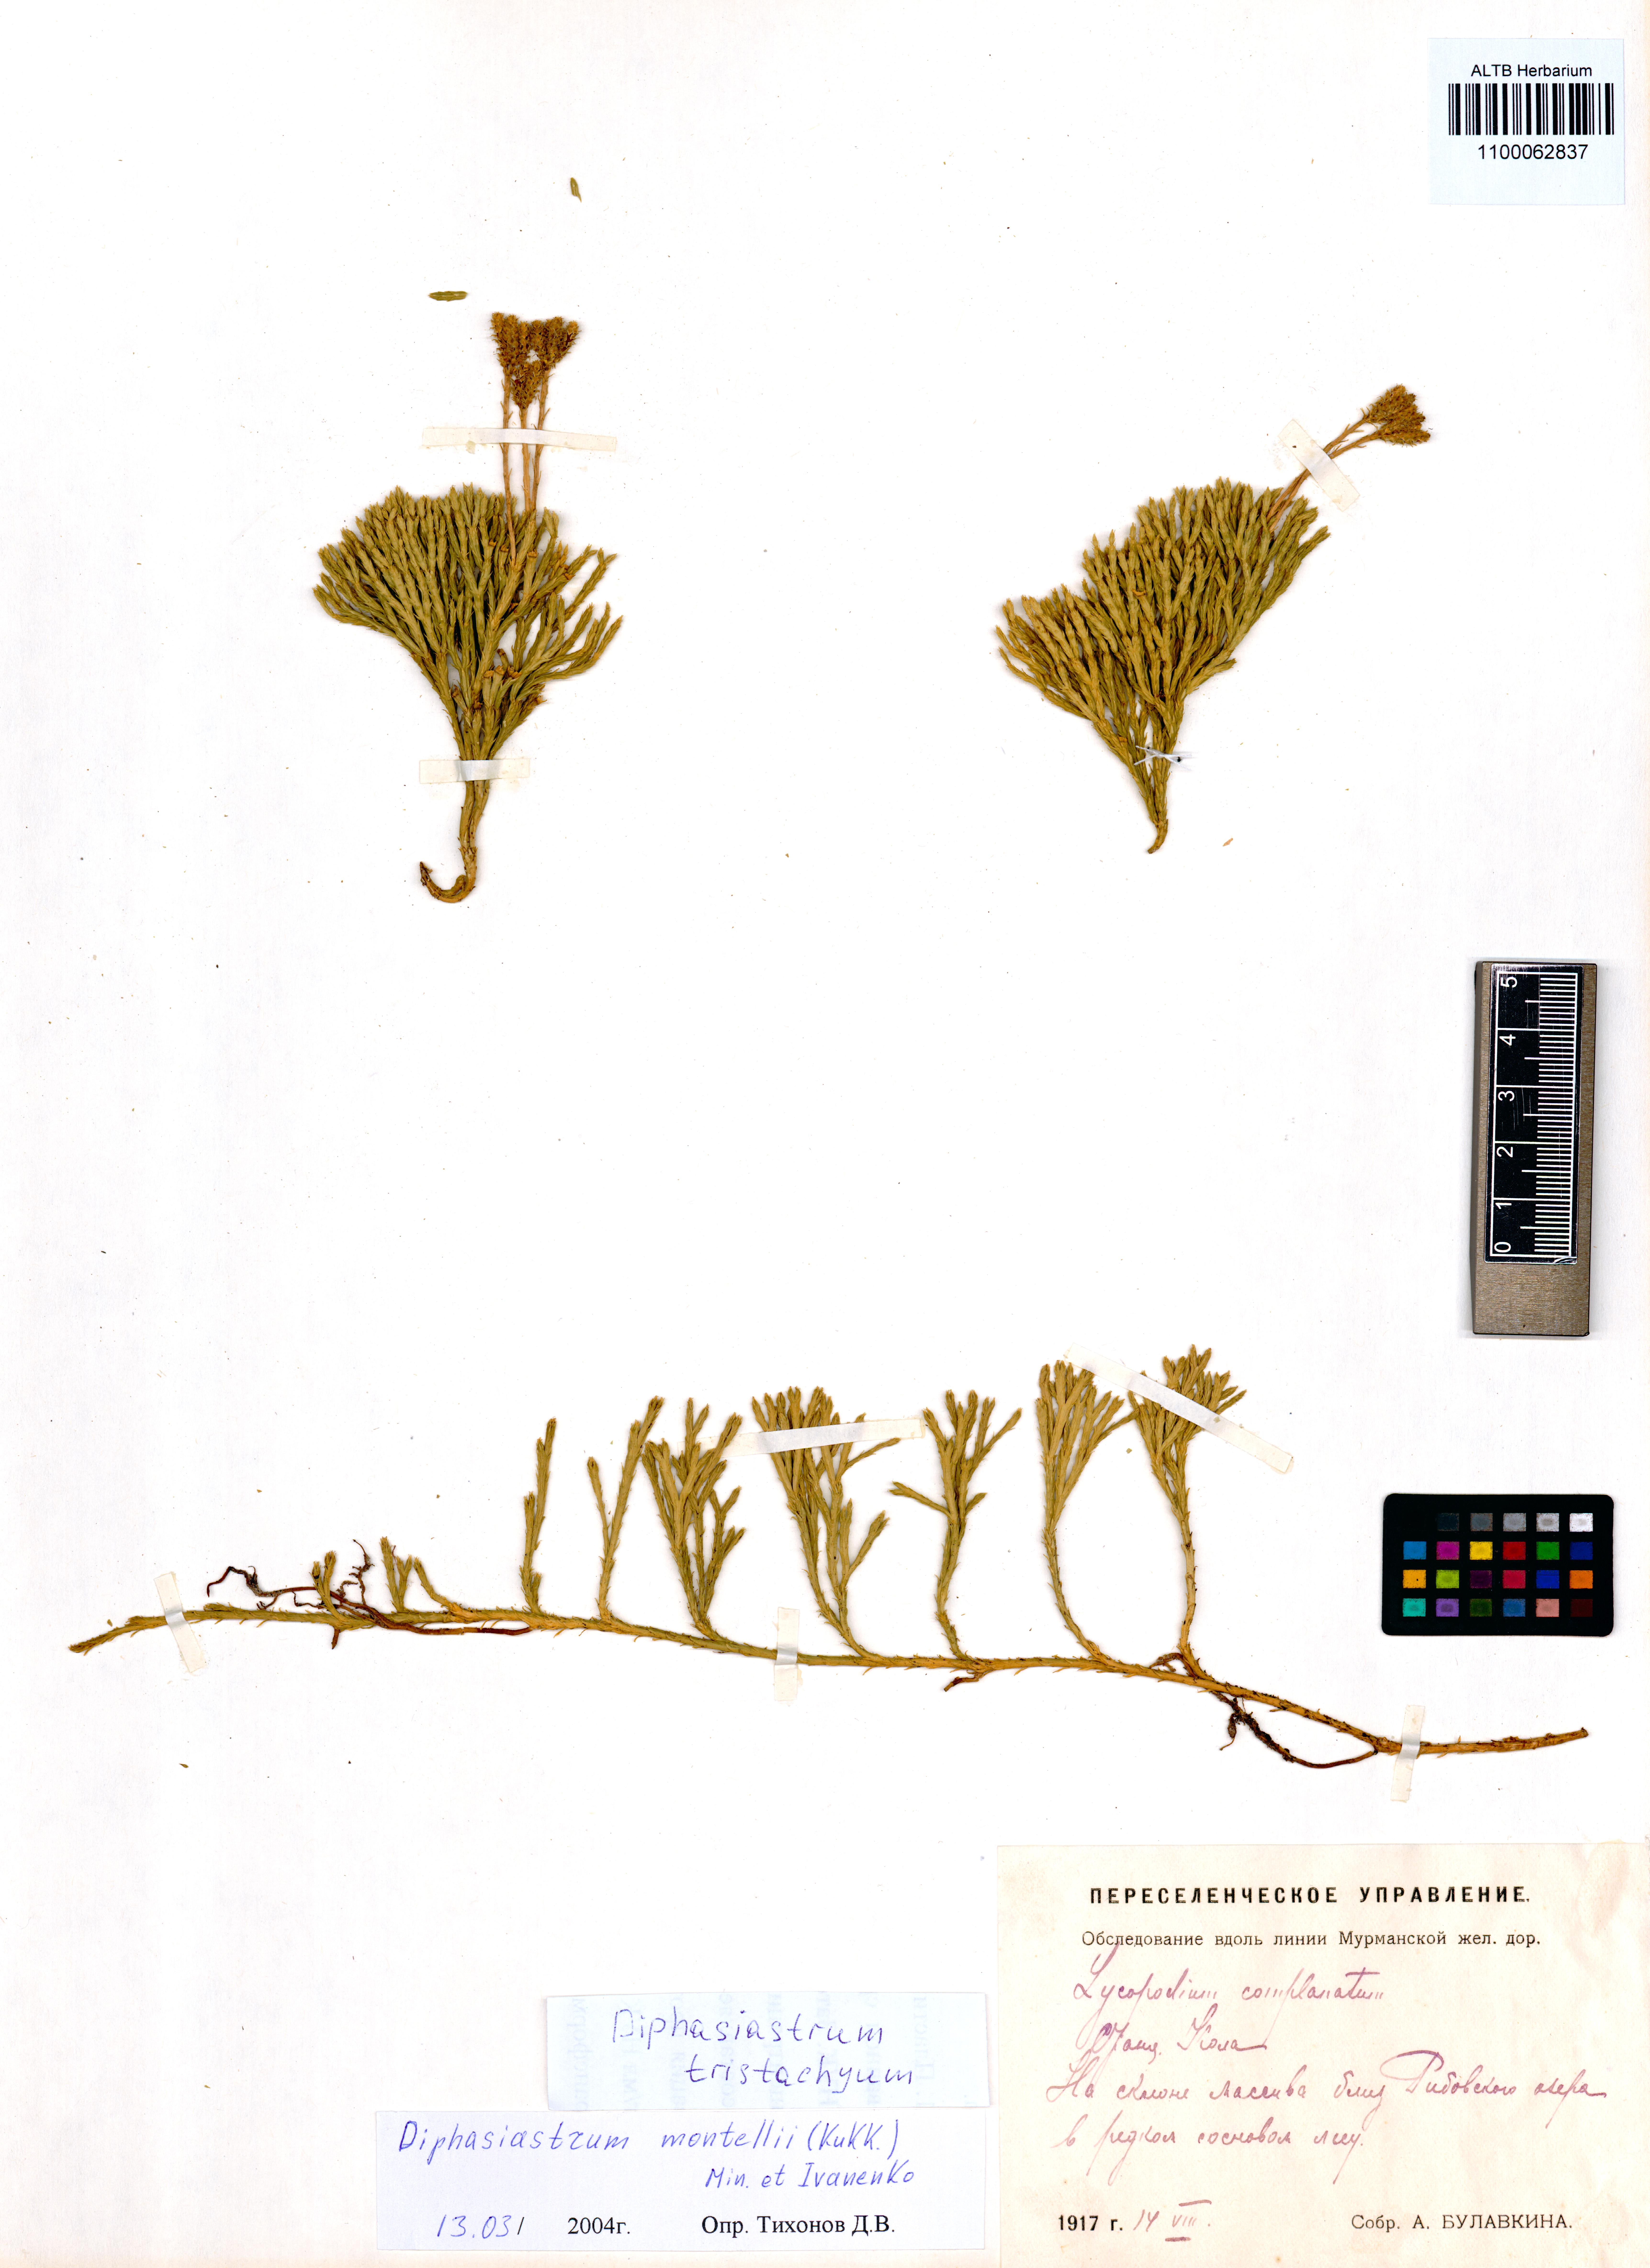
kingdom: Plantae
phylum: Tracheophyta
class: Lycopodiopsida
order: Lycopodiales
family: Lycopodiaceae
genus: Diphasiastrum
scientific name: Diphasiastrum tristachyum
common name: Blue ground-cedar
